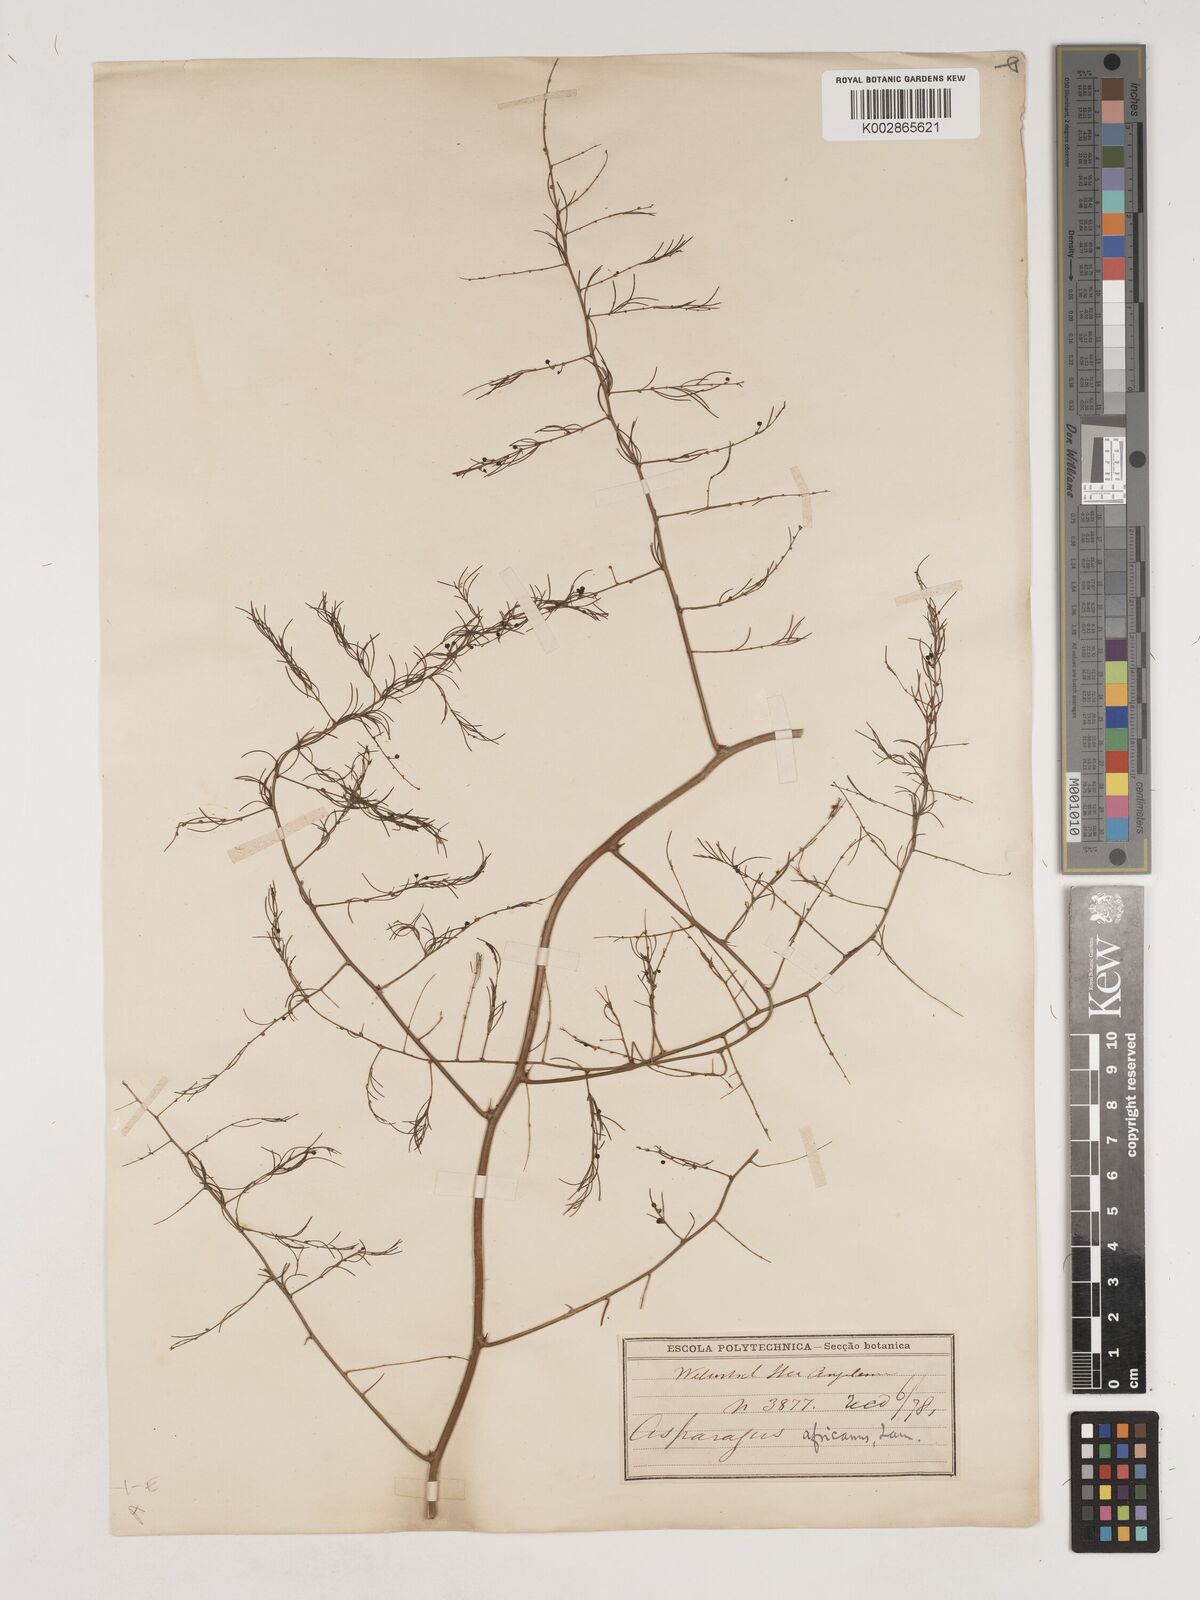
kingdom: Plantae
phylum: Tracheophyta
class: Liliopsida
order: Asparagales
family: Asparagaceae
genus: Asparagus
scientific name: Asparagus africanus
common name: Asparagus-fern
